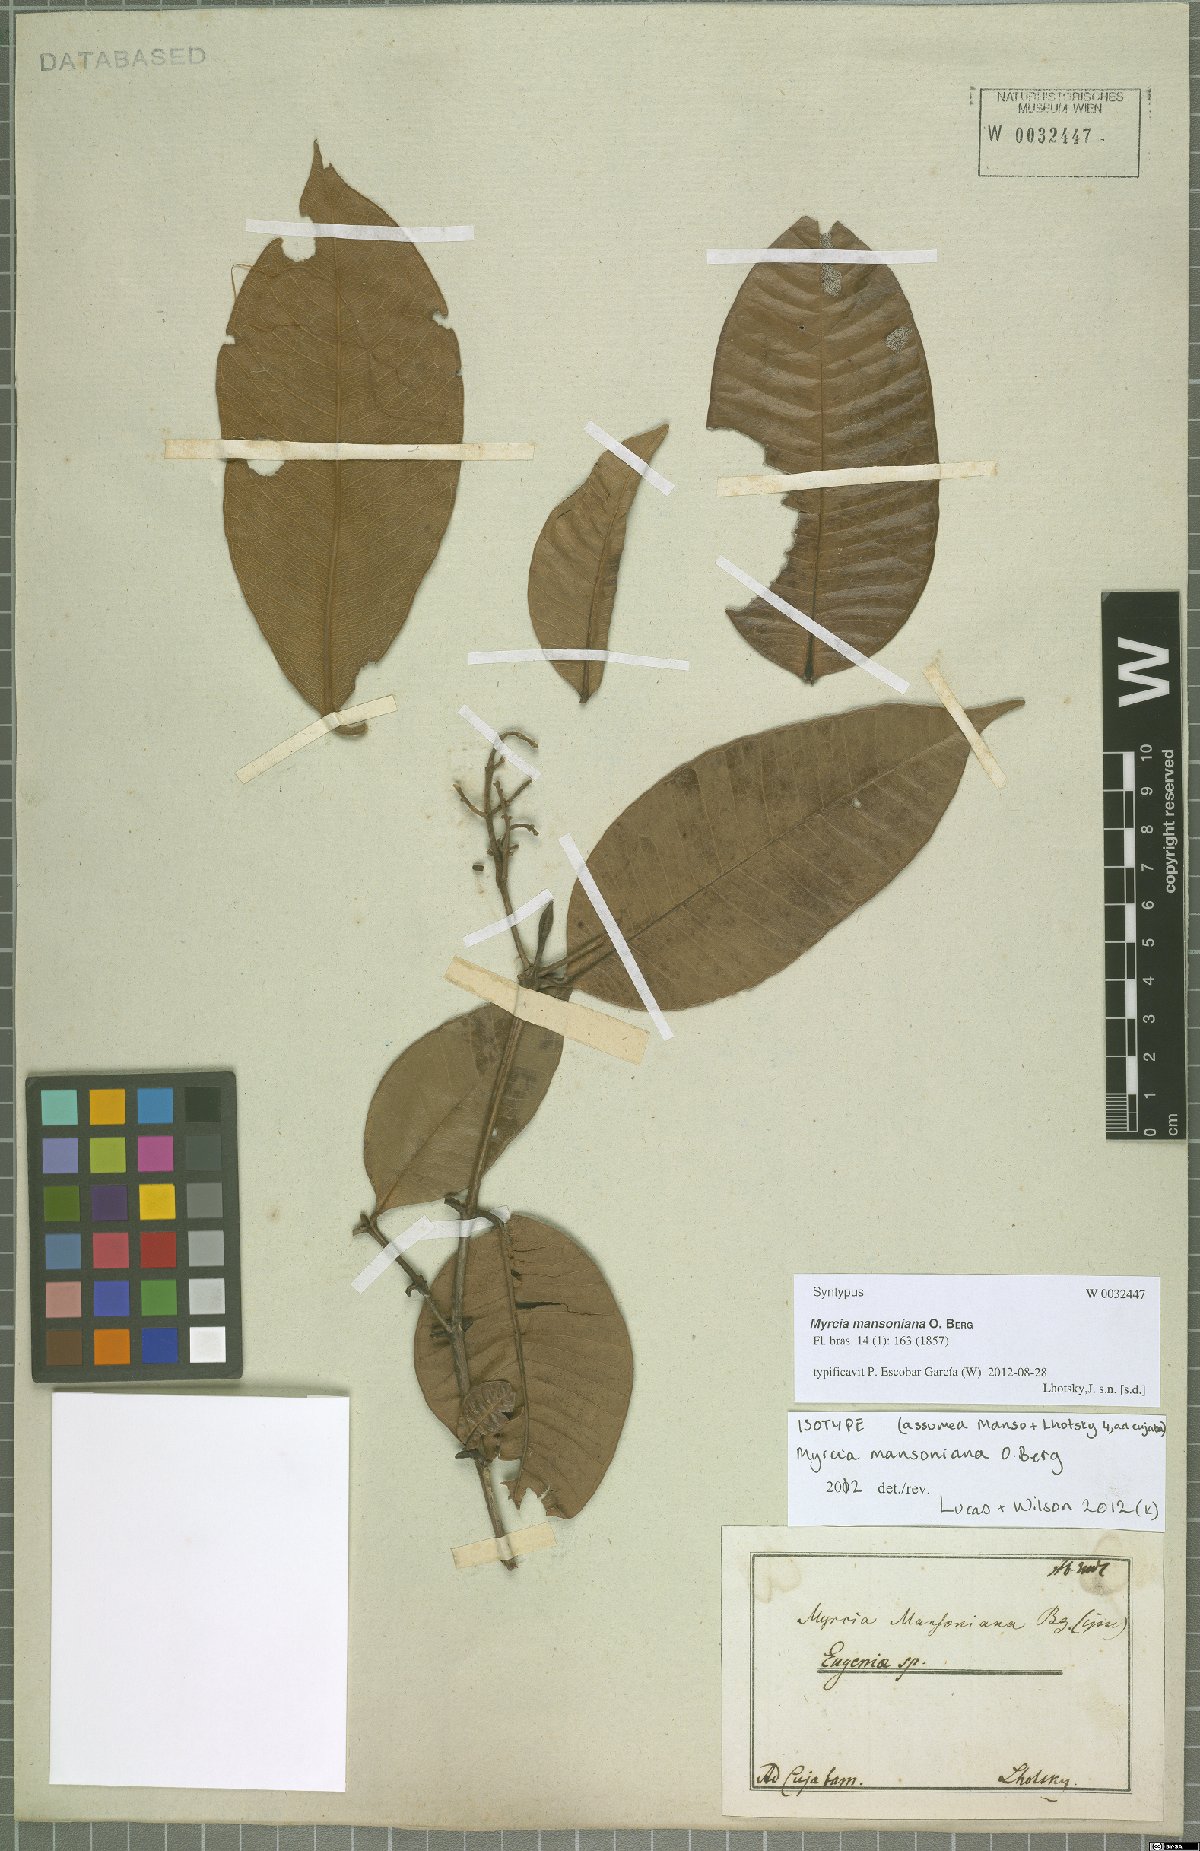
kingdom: Plantae
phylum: Tracheophyta
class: Magnoliopsida
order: Myrtales
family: Myrtaceae
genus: Myrcia
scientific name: Myrcia mansoniana
